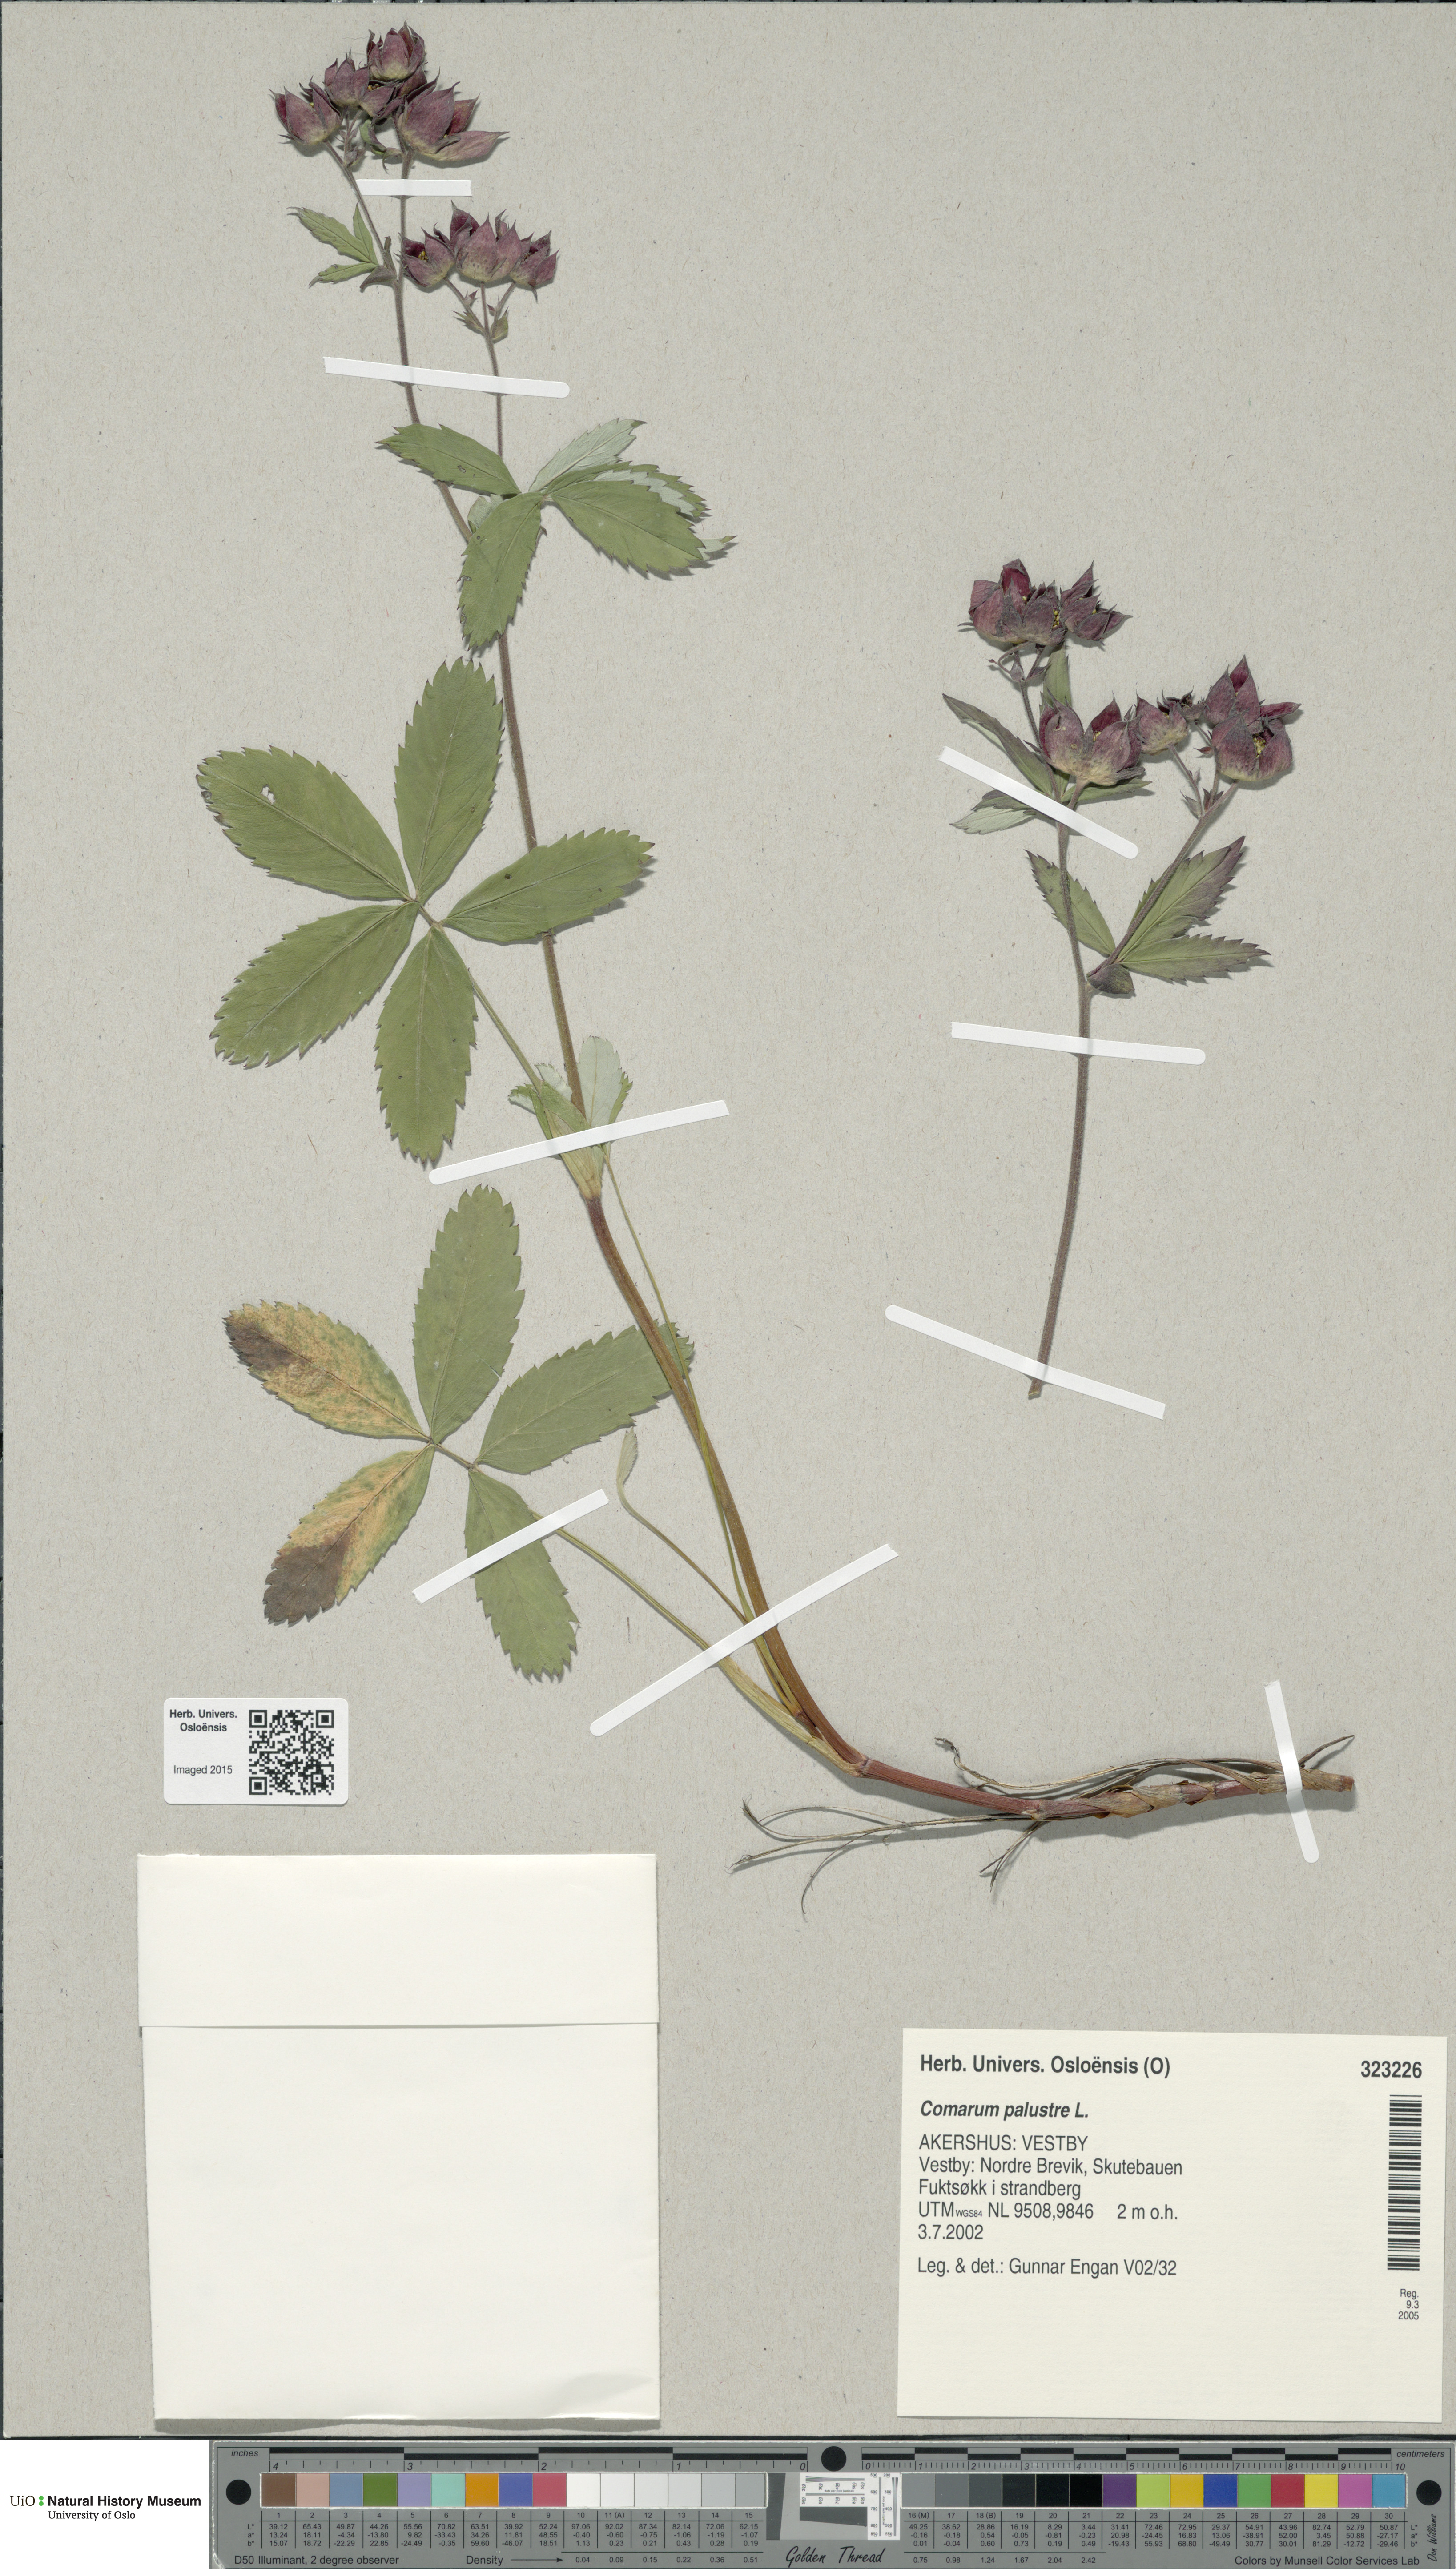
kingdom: Plantae
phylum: Tracheophyta
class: Magnoliopsida
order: Rosales
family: Rosaceae
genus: Comarum
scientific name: Comarum palustre
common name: Marsh cinquefoil
